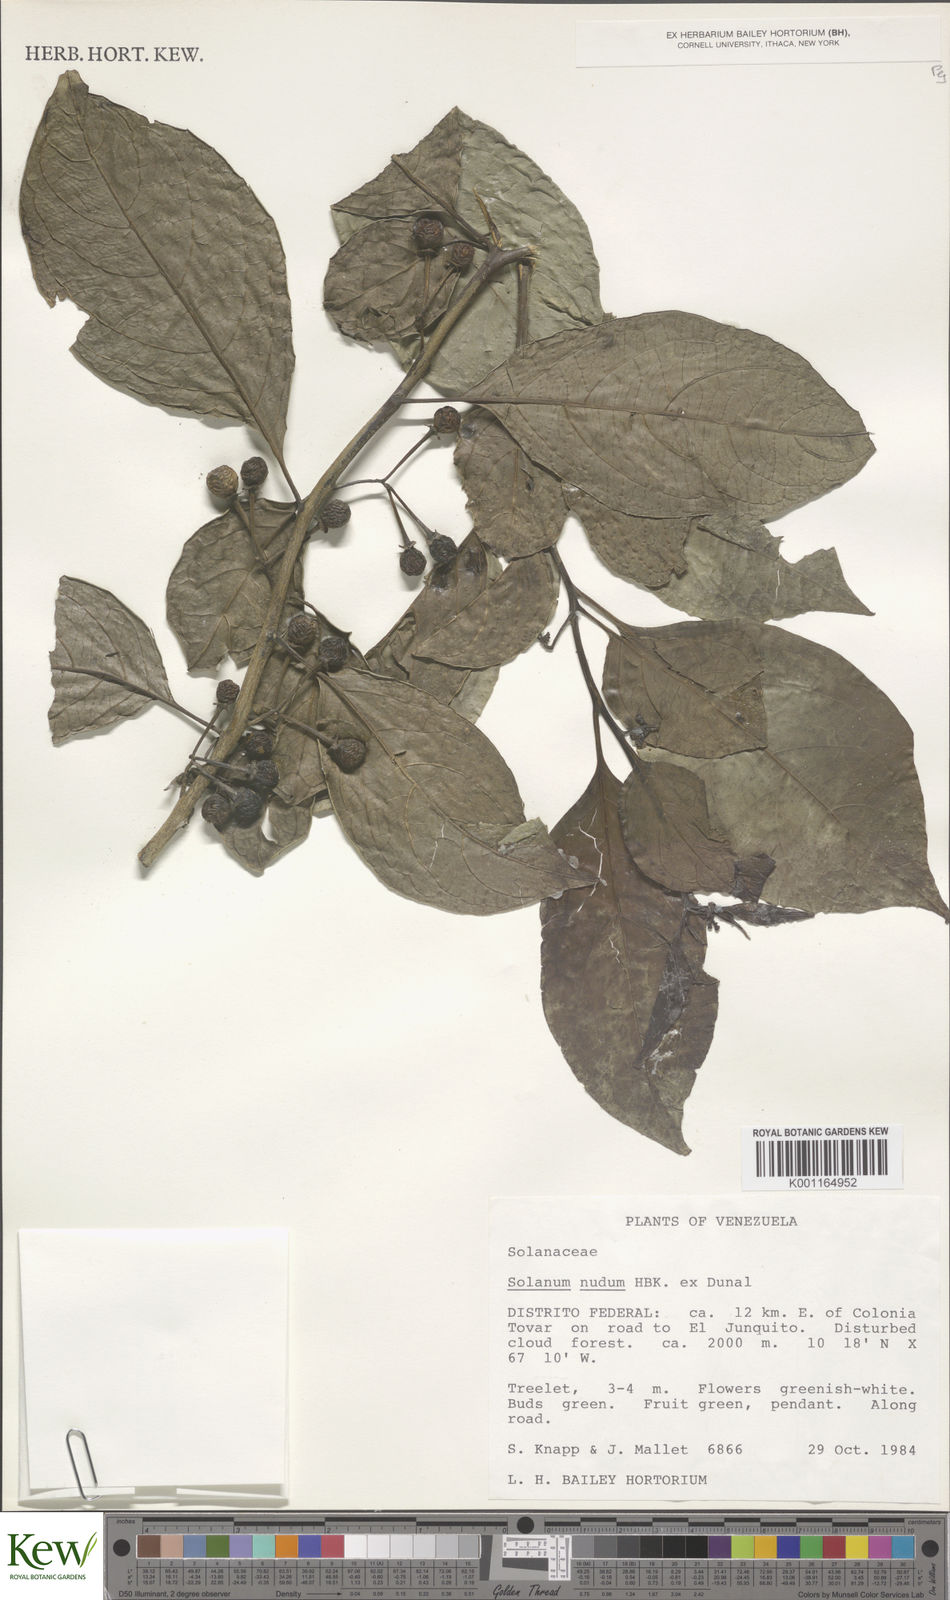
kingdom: Plantae
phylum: Tracheophyta
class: Magnoliopsida
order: Solanales
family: Solanaceae
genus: Solanum
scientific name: Solanum nudum
